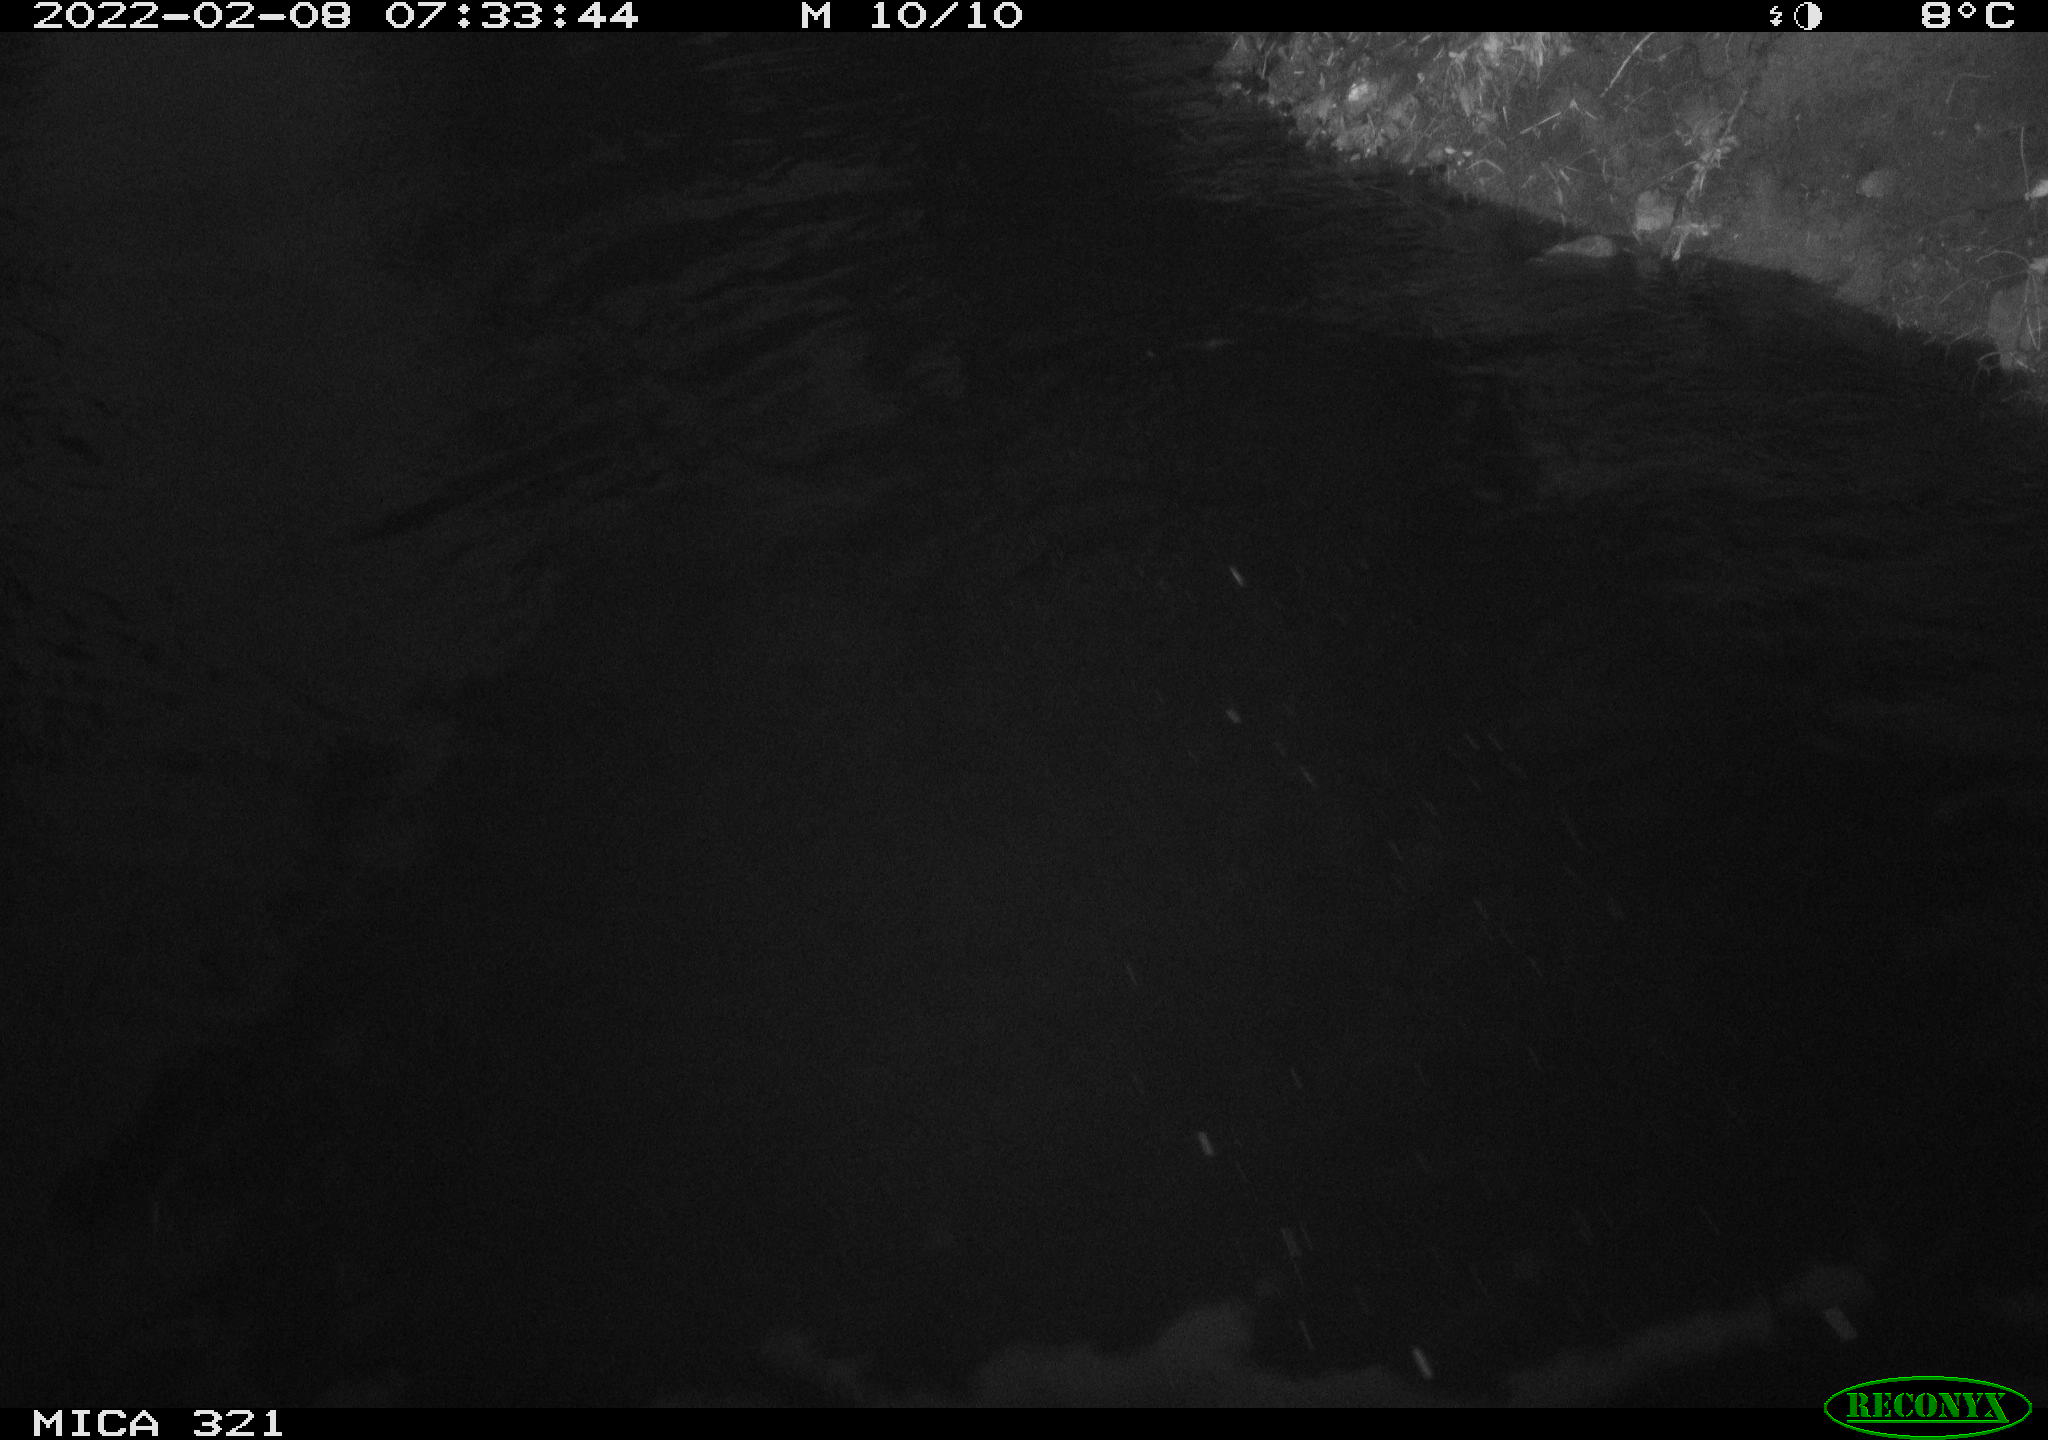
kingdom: Animalia
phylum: Chordata
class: Aves
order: Anseriformes
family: Anatidae
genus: Anas
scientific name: Anas platyrhynchos
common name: Mallard
